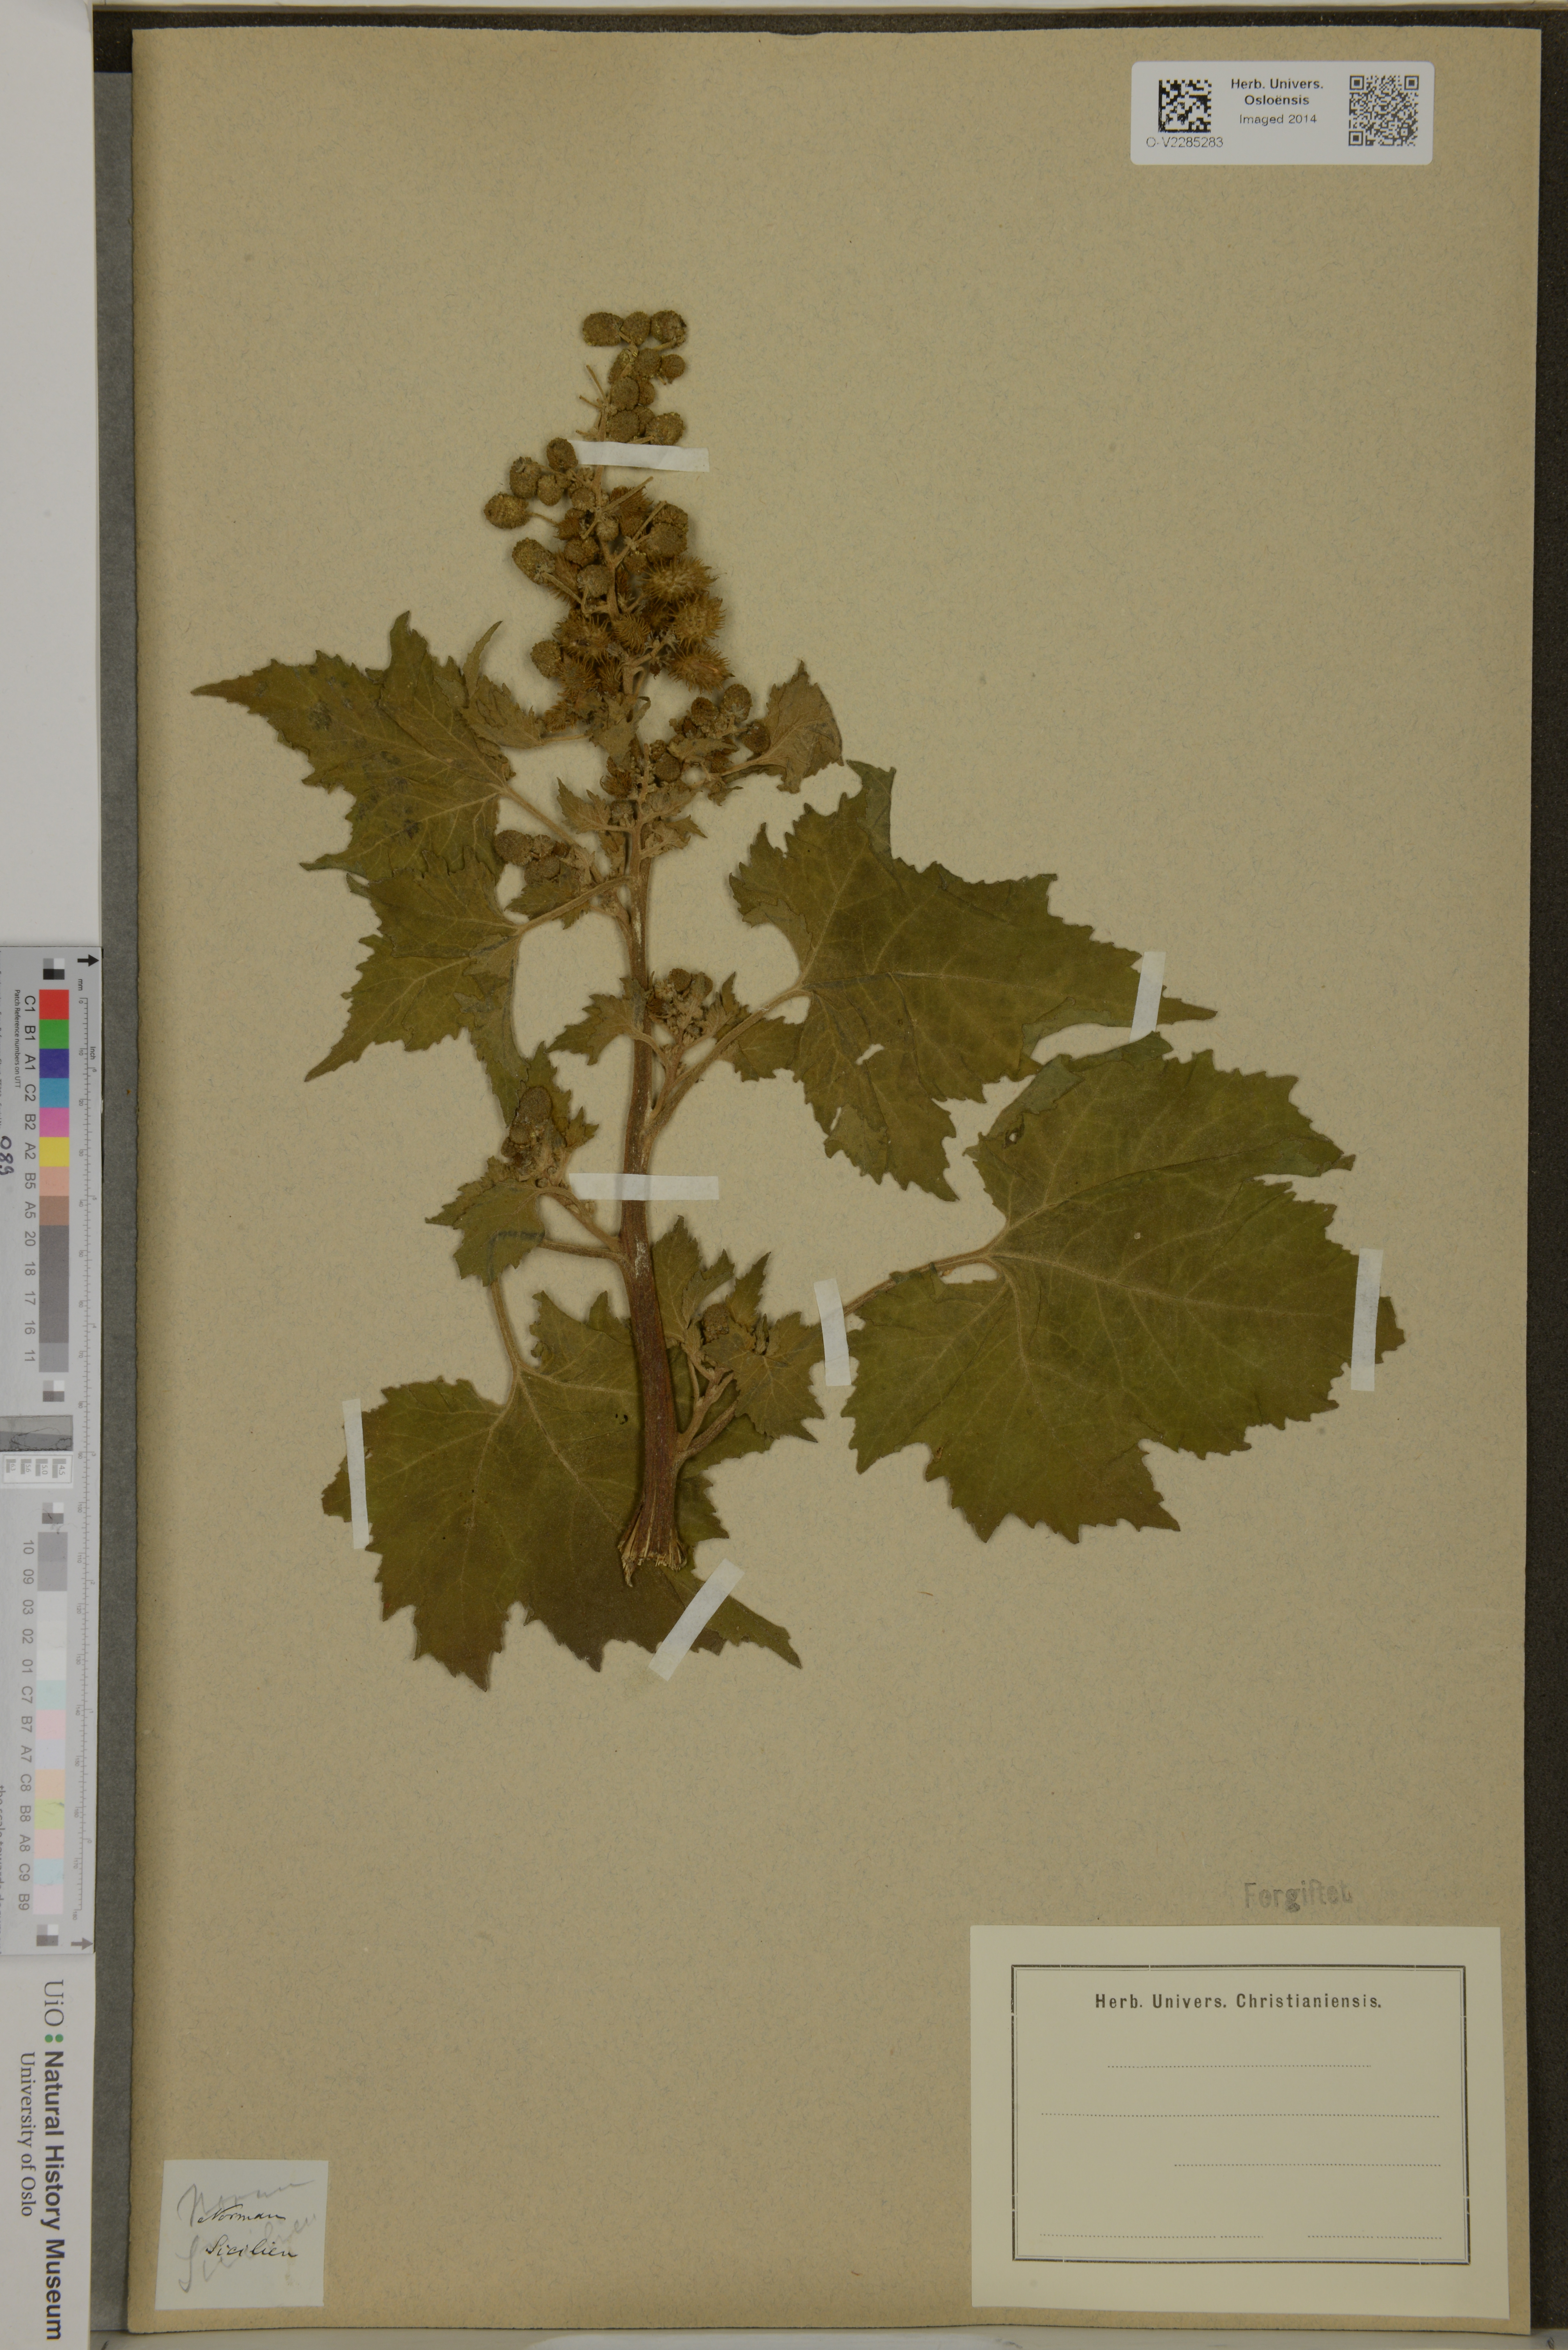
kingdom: Plantae
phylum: Tracheophyta
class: Magnoliopsida
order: Asterales
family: Asteraceae
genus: Xanthium
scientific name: Xanthium
